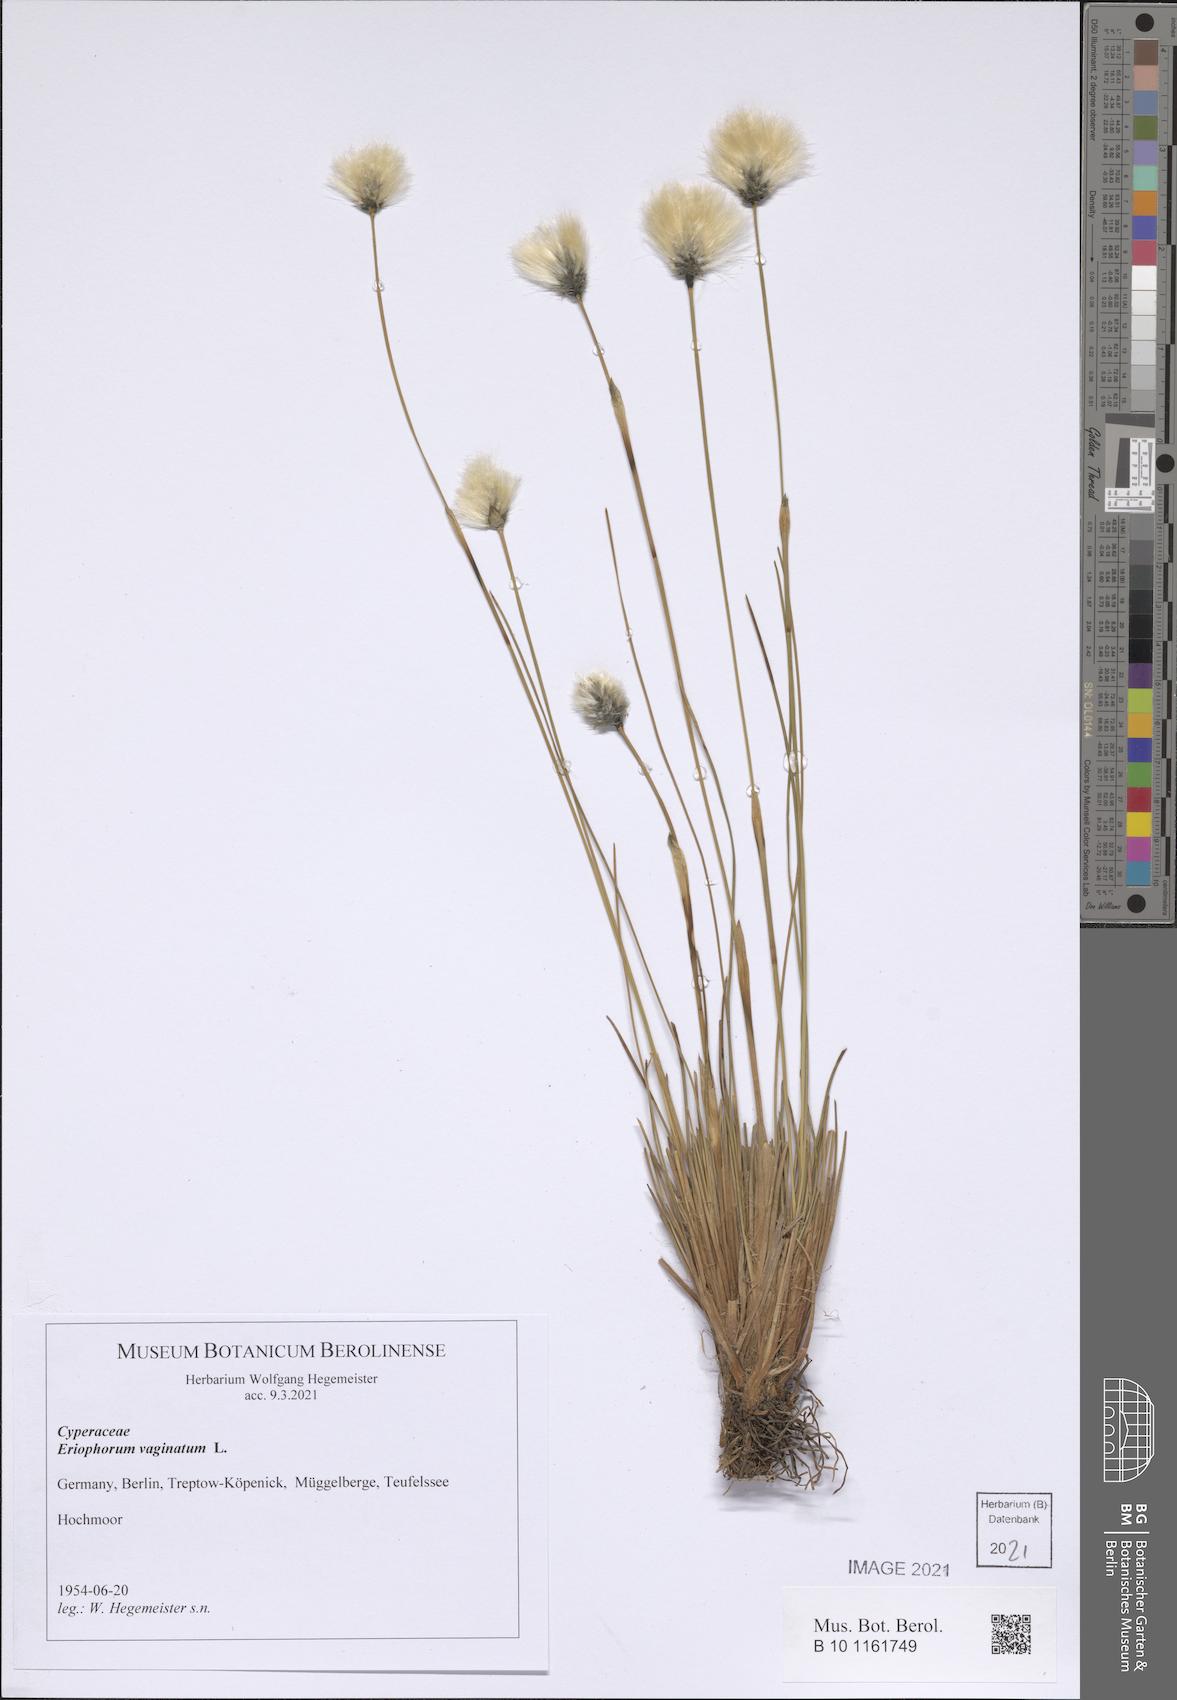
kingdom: Plantae
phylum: Tracheophyta
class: Liliopsida
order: Poales
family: Cyperaceae
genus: Eriophorum
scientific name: Eriophorum vaginatum
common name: Hare's-tail cottongrass
